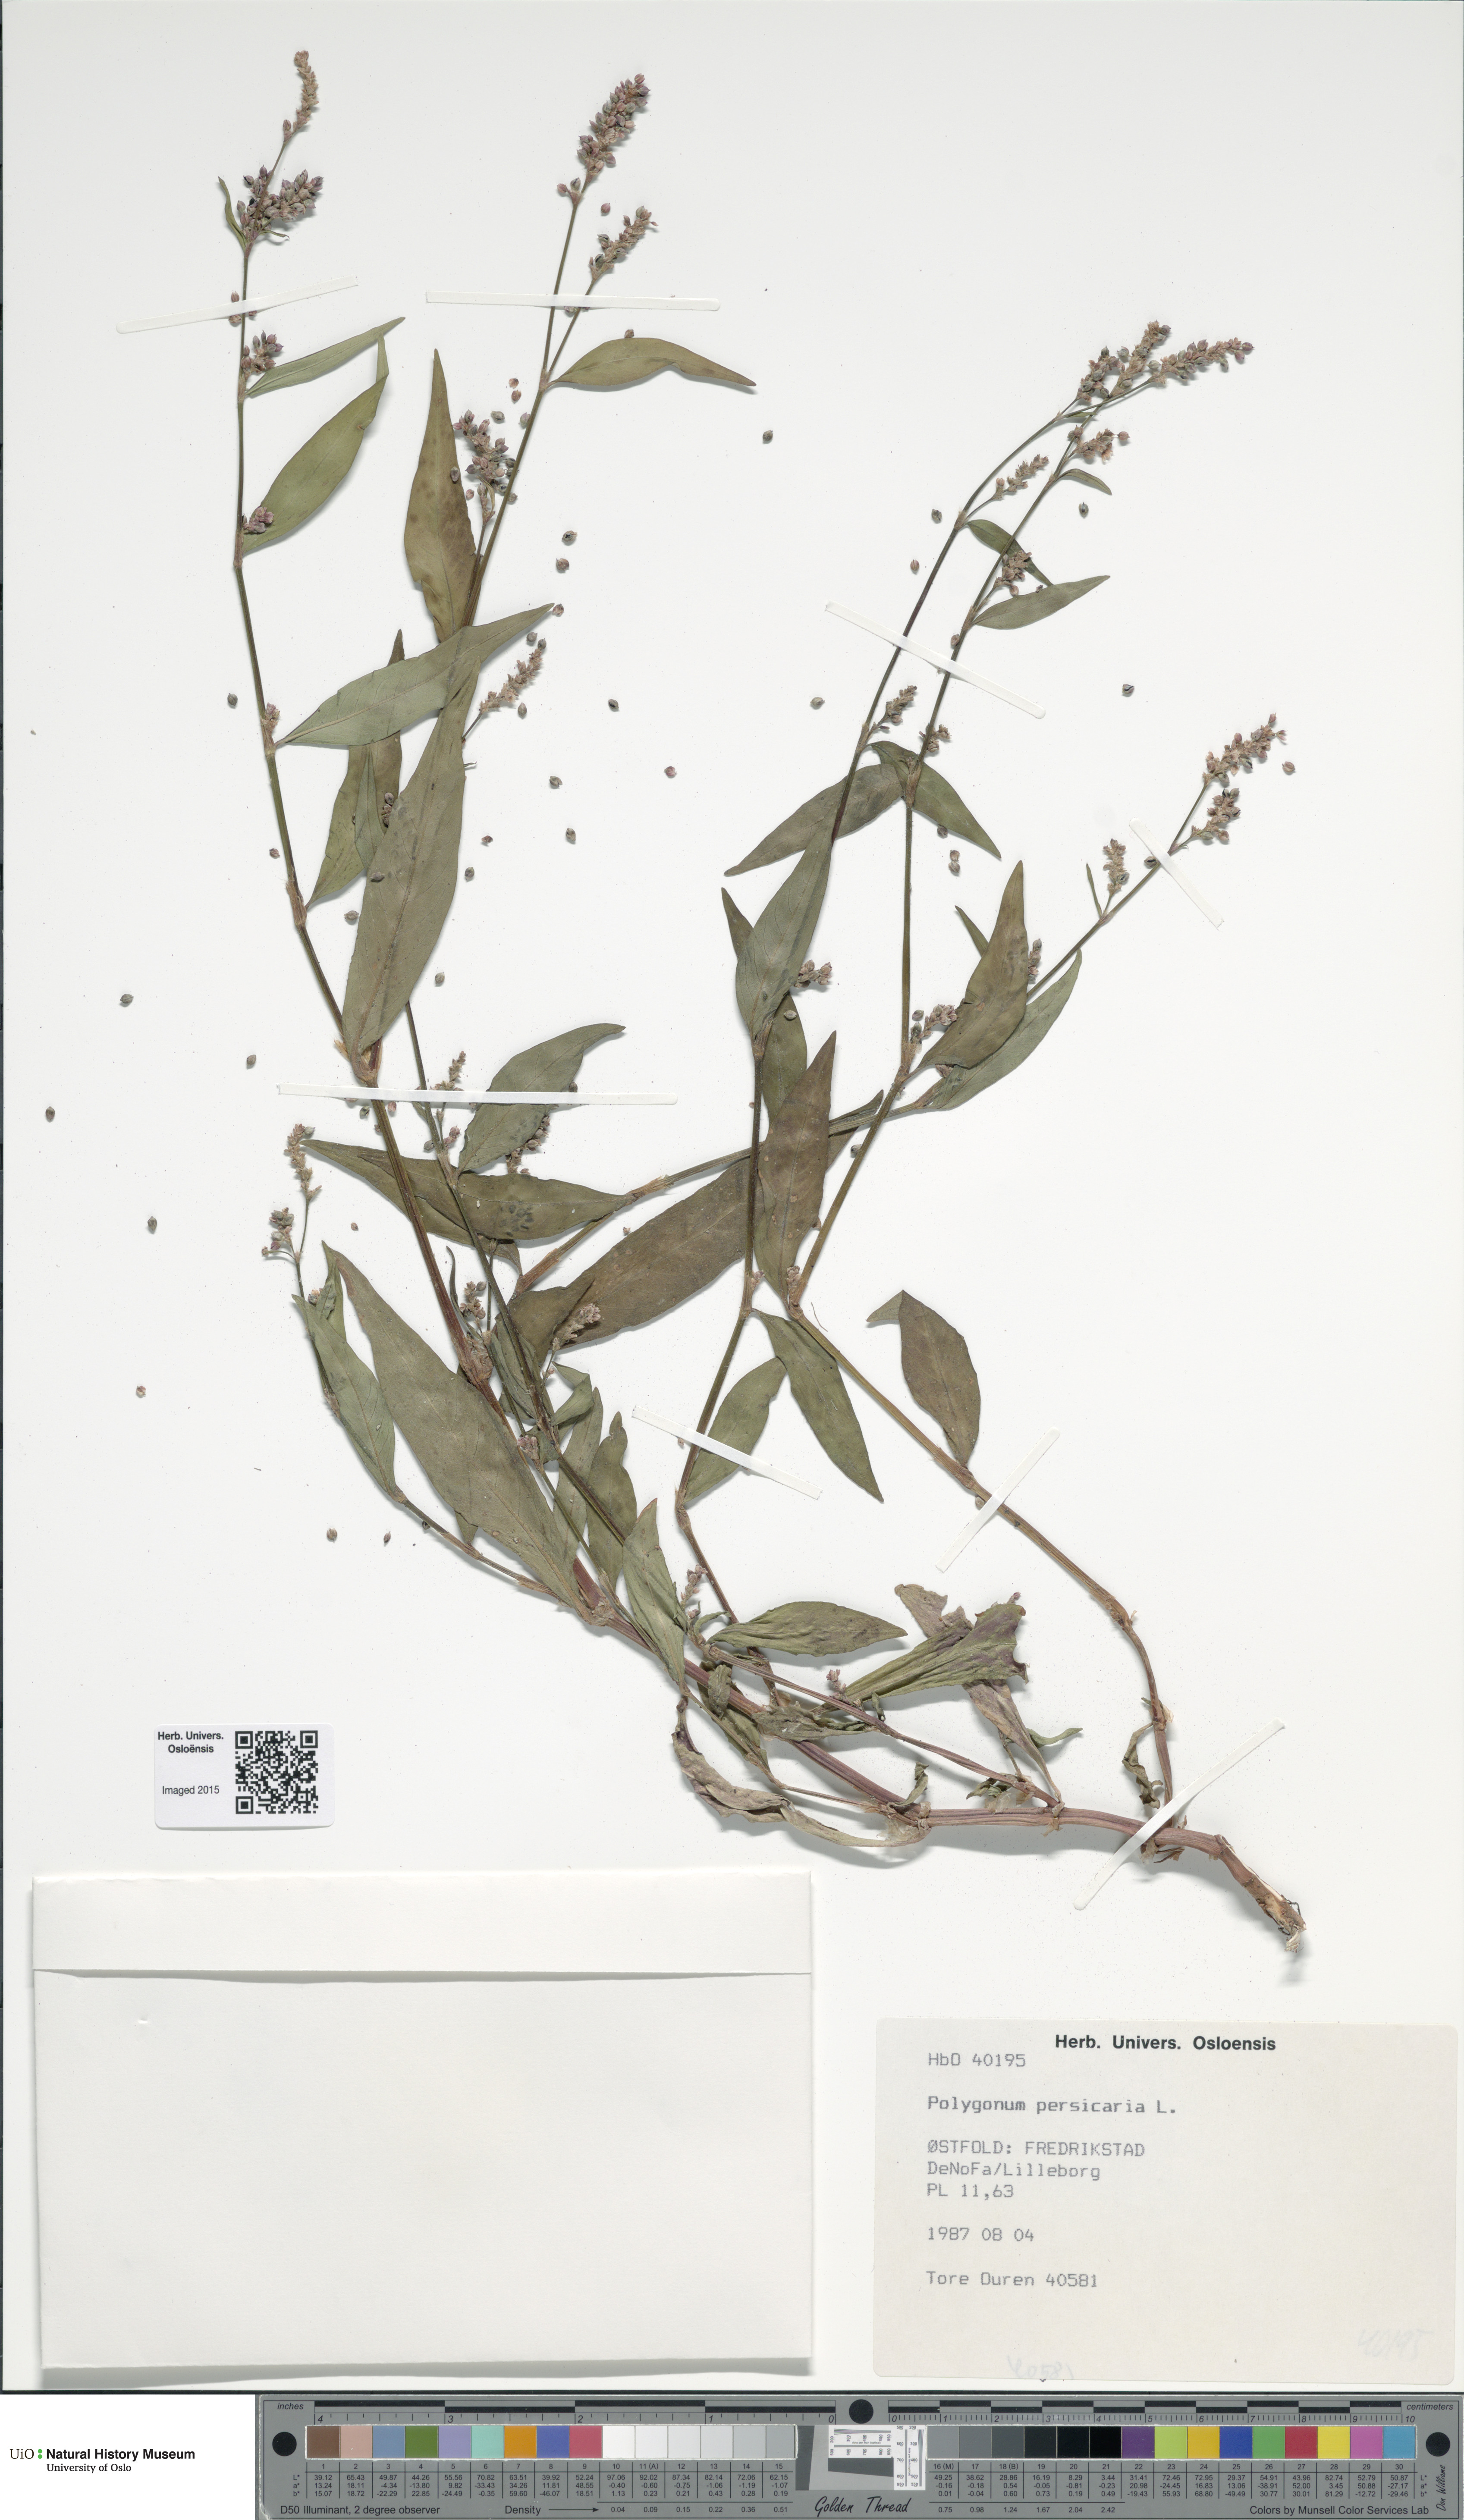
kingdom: Plantae
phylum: Tracheophyta
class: Magnoliopsida
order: Caryophyllales
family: Polygonaceae
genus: Persicaria
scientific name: Persicaria maculosa
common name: Redshank
